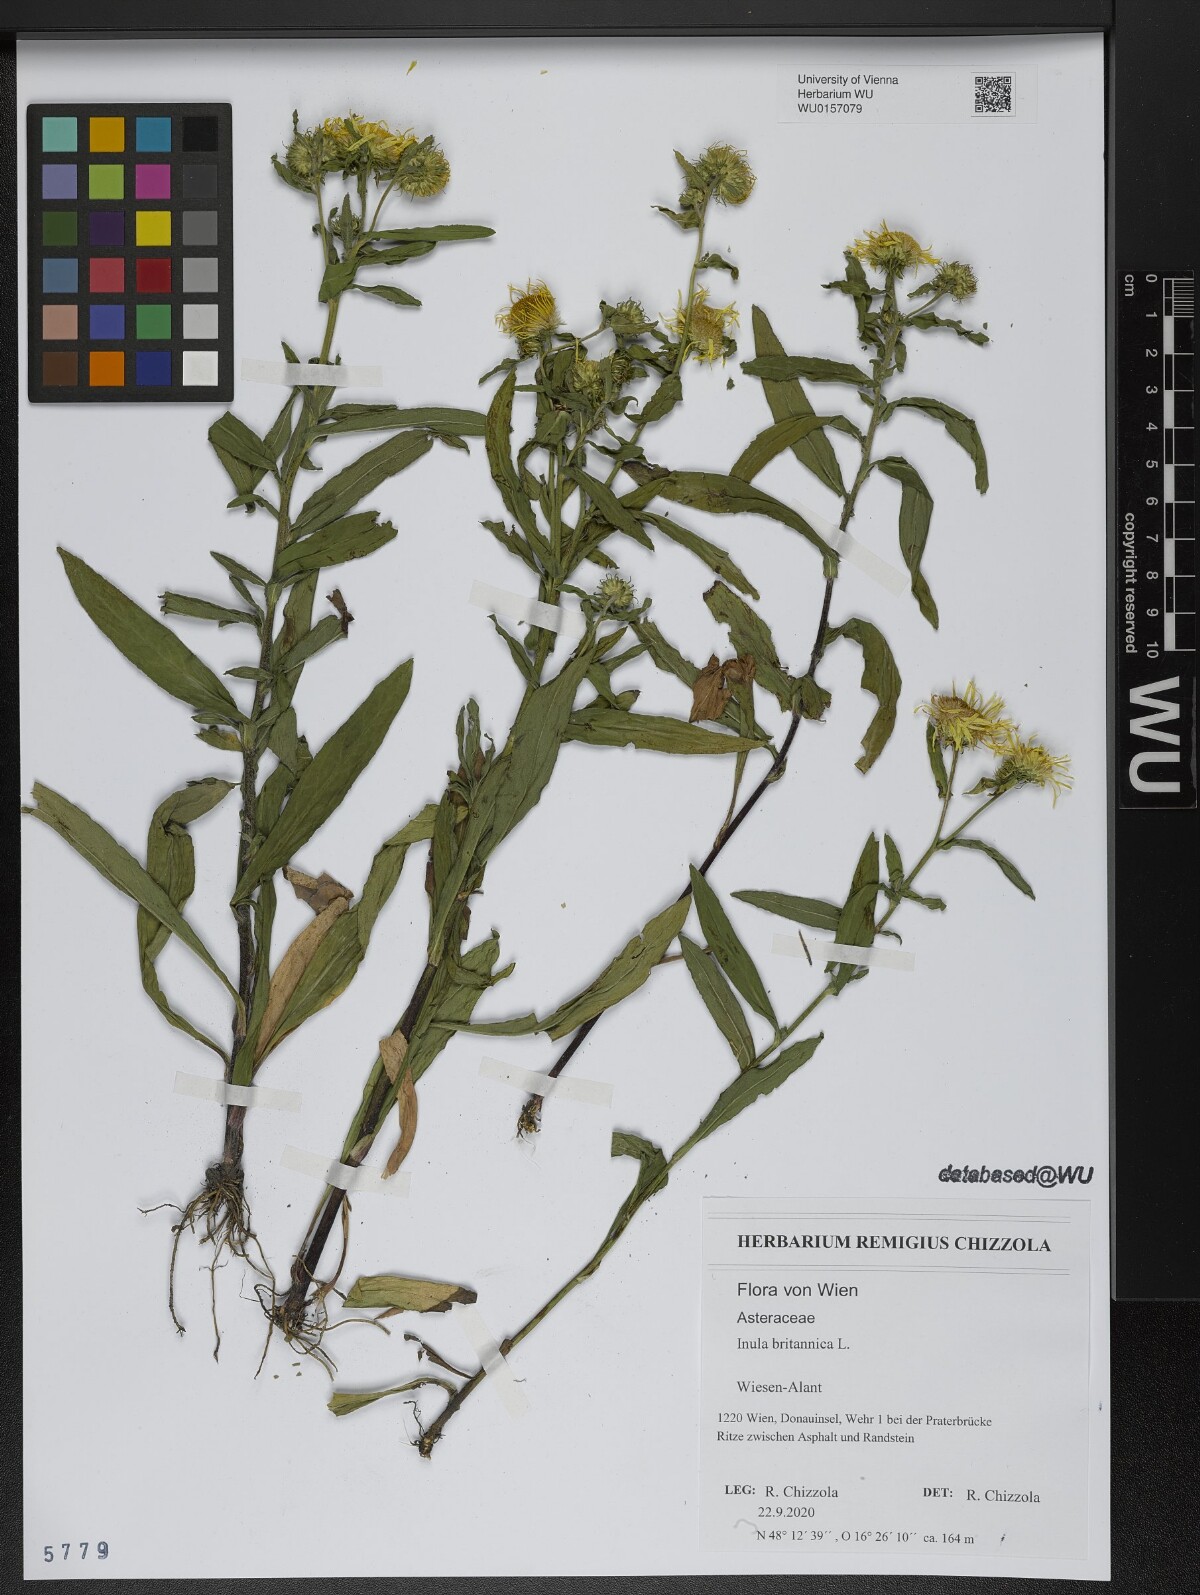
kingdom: Plantae
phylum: Tracheophyta
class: Magnoliopsida
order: Asterales
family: Asteraceae
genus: Pentanema
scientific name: Pentanema britannicum
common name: British elecampane
